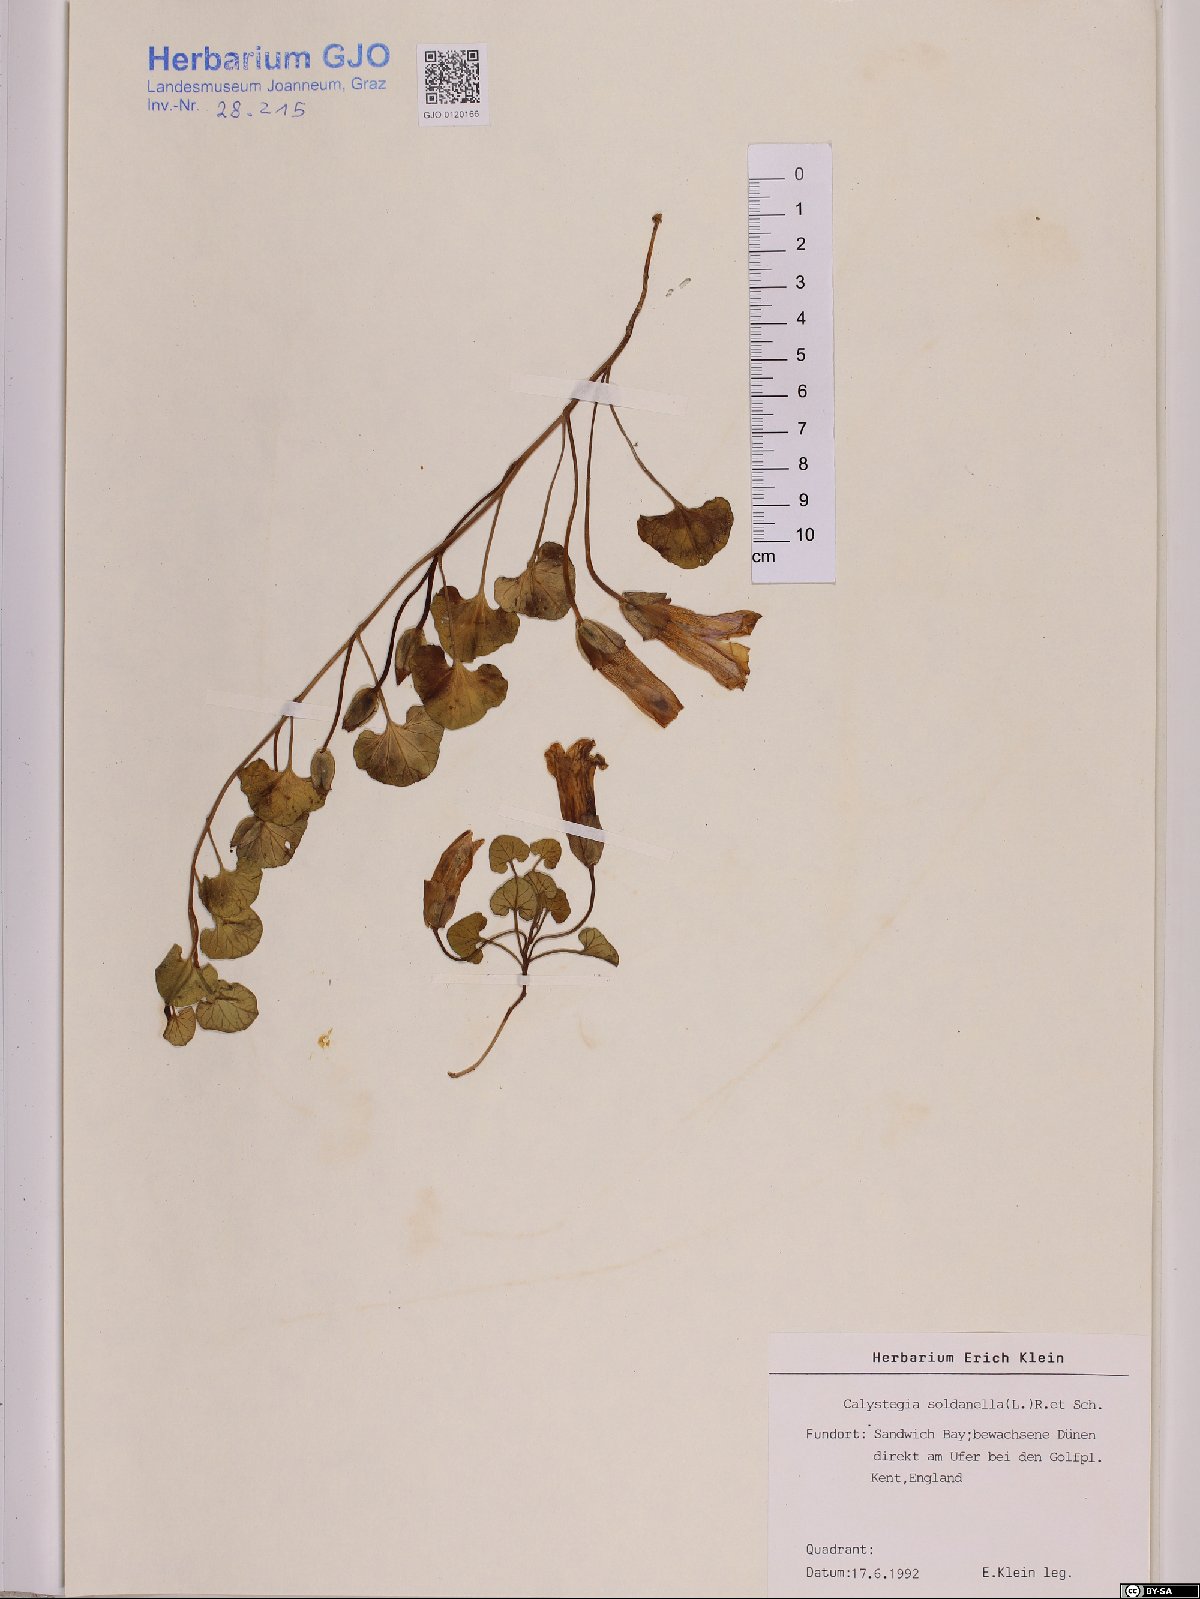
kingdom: Plantae
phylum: Tracheophyta
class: Magnoliopsida
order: Solanales
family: Convolvulaceae
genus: Calystegia
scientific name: Calystegia soldanella
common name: Sea bindweed
